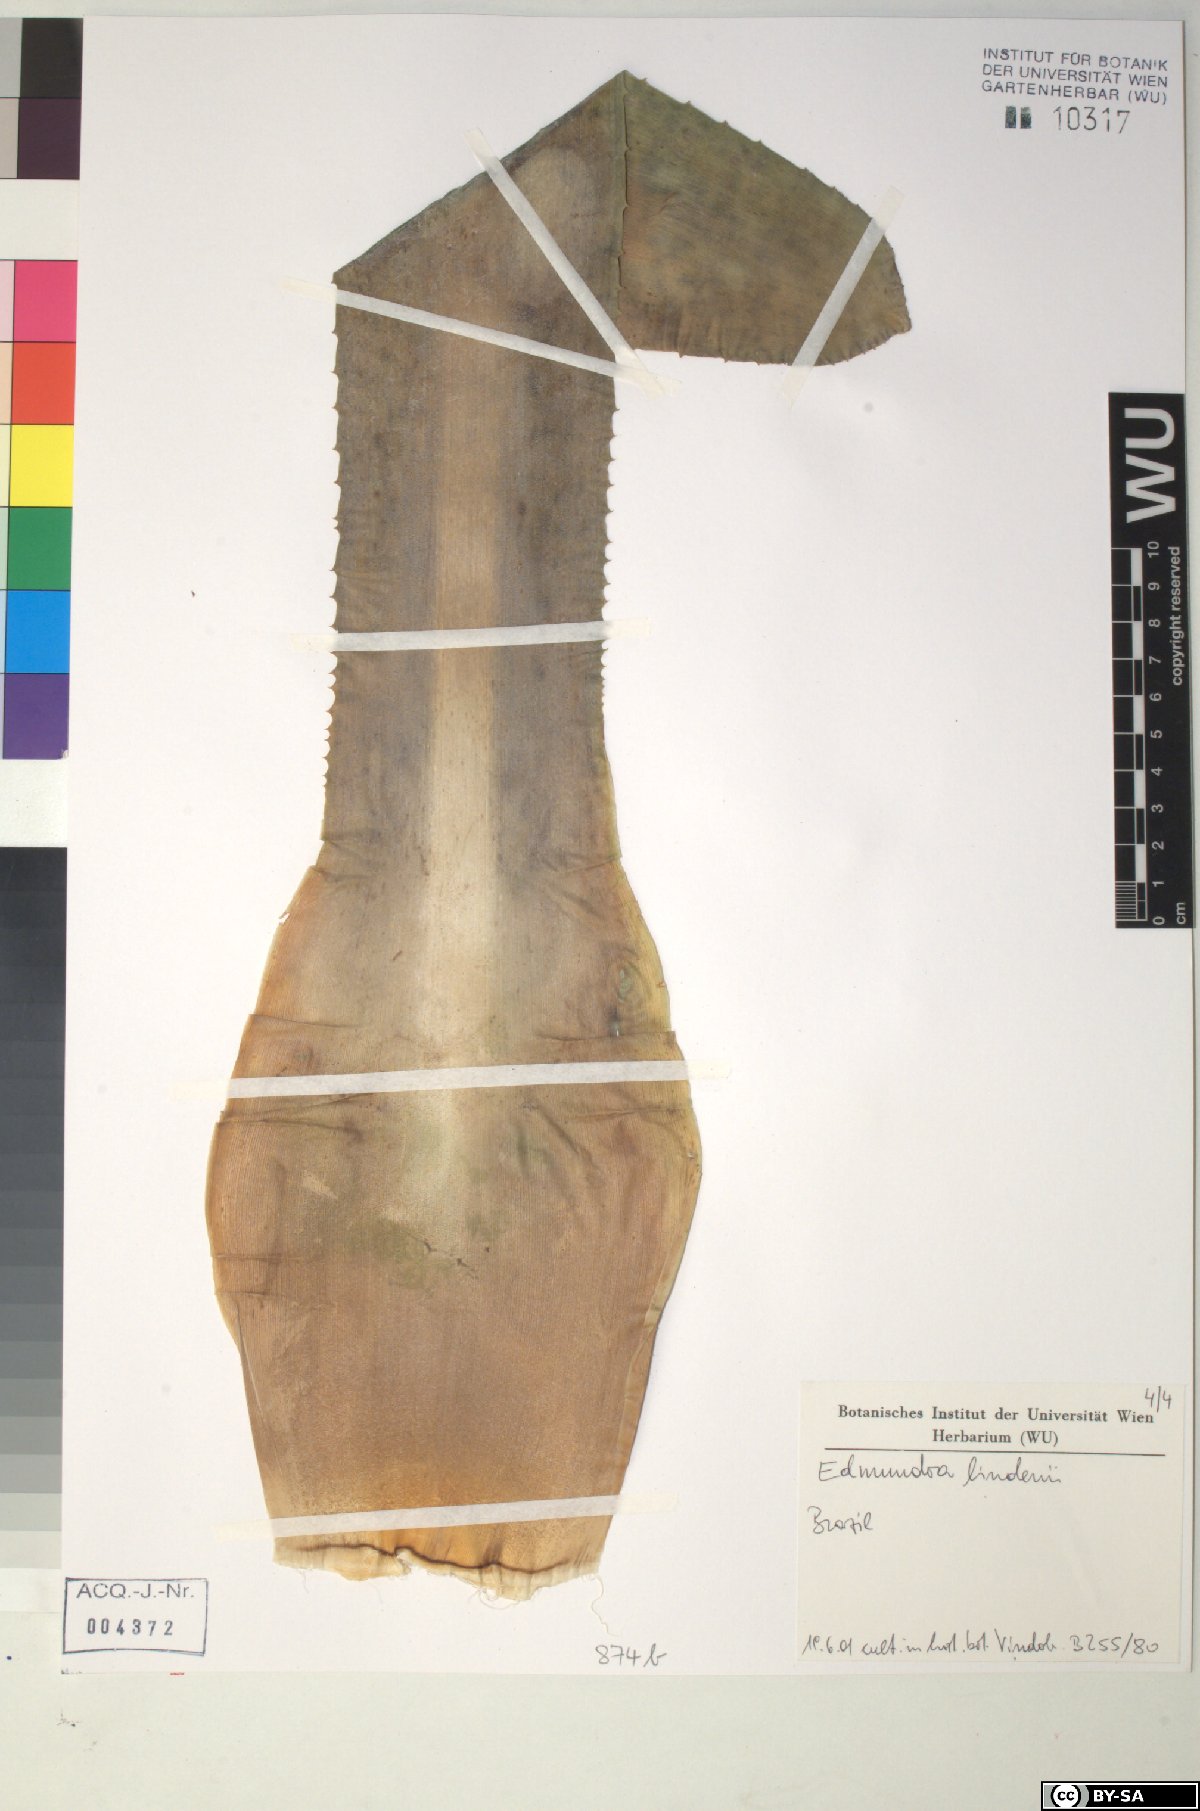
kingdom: Plantae
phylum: Tracheophyta
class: Liliopsida
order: Poales
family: Bromeliaceae
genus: Edmundoa
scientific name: Edmundoa
